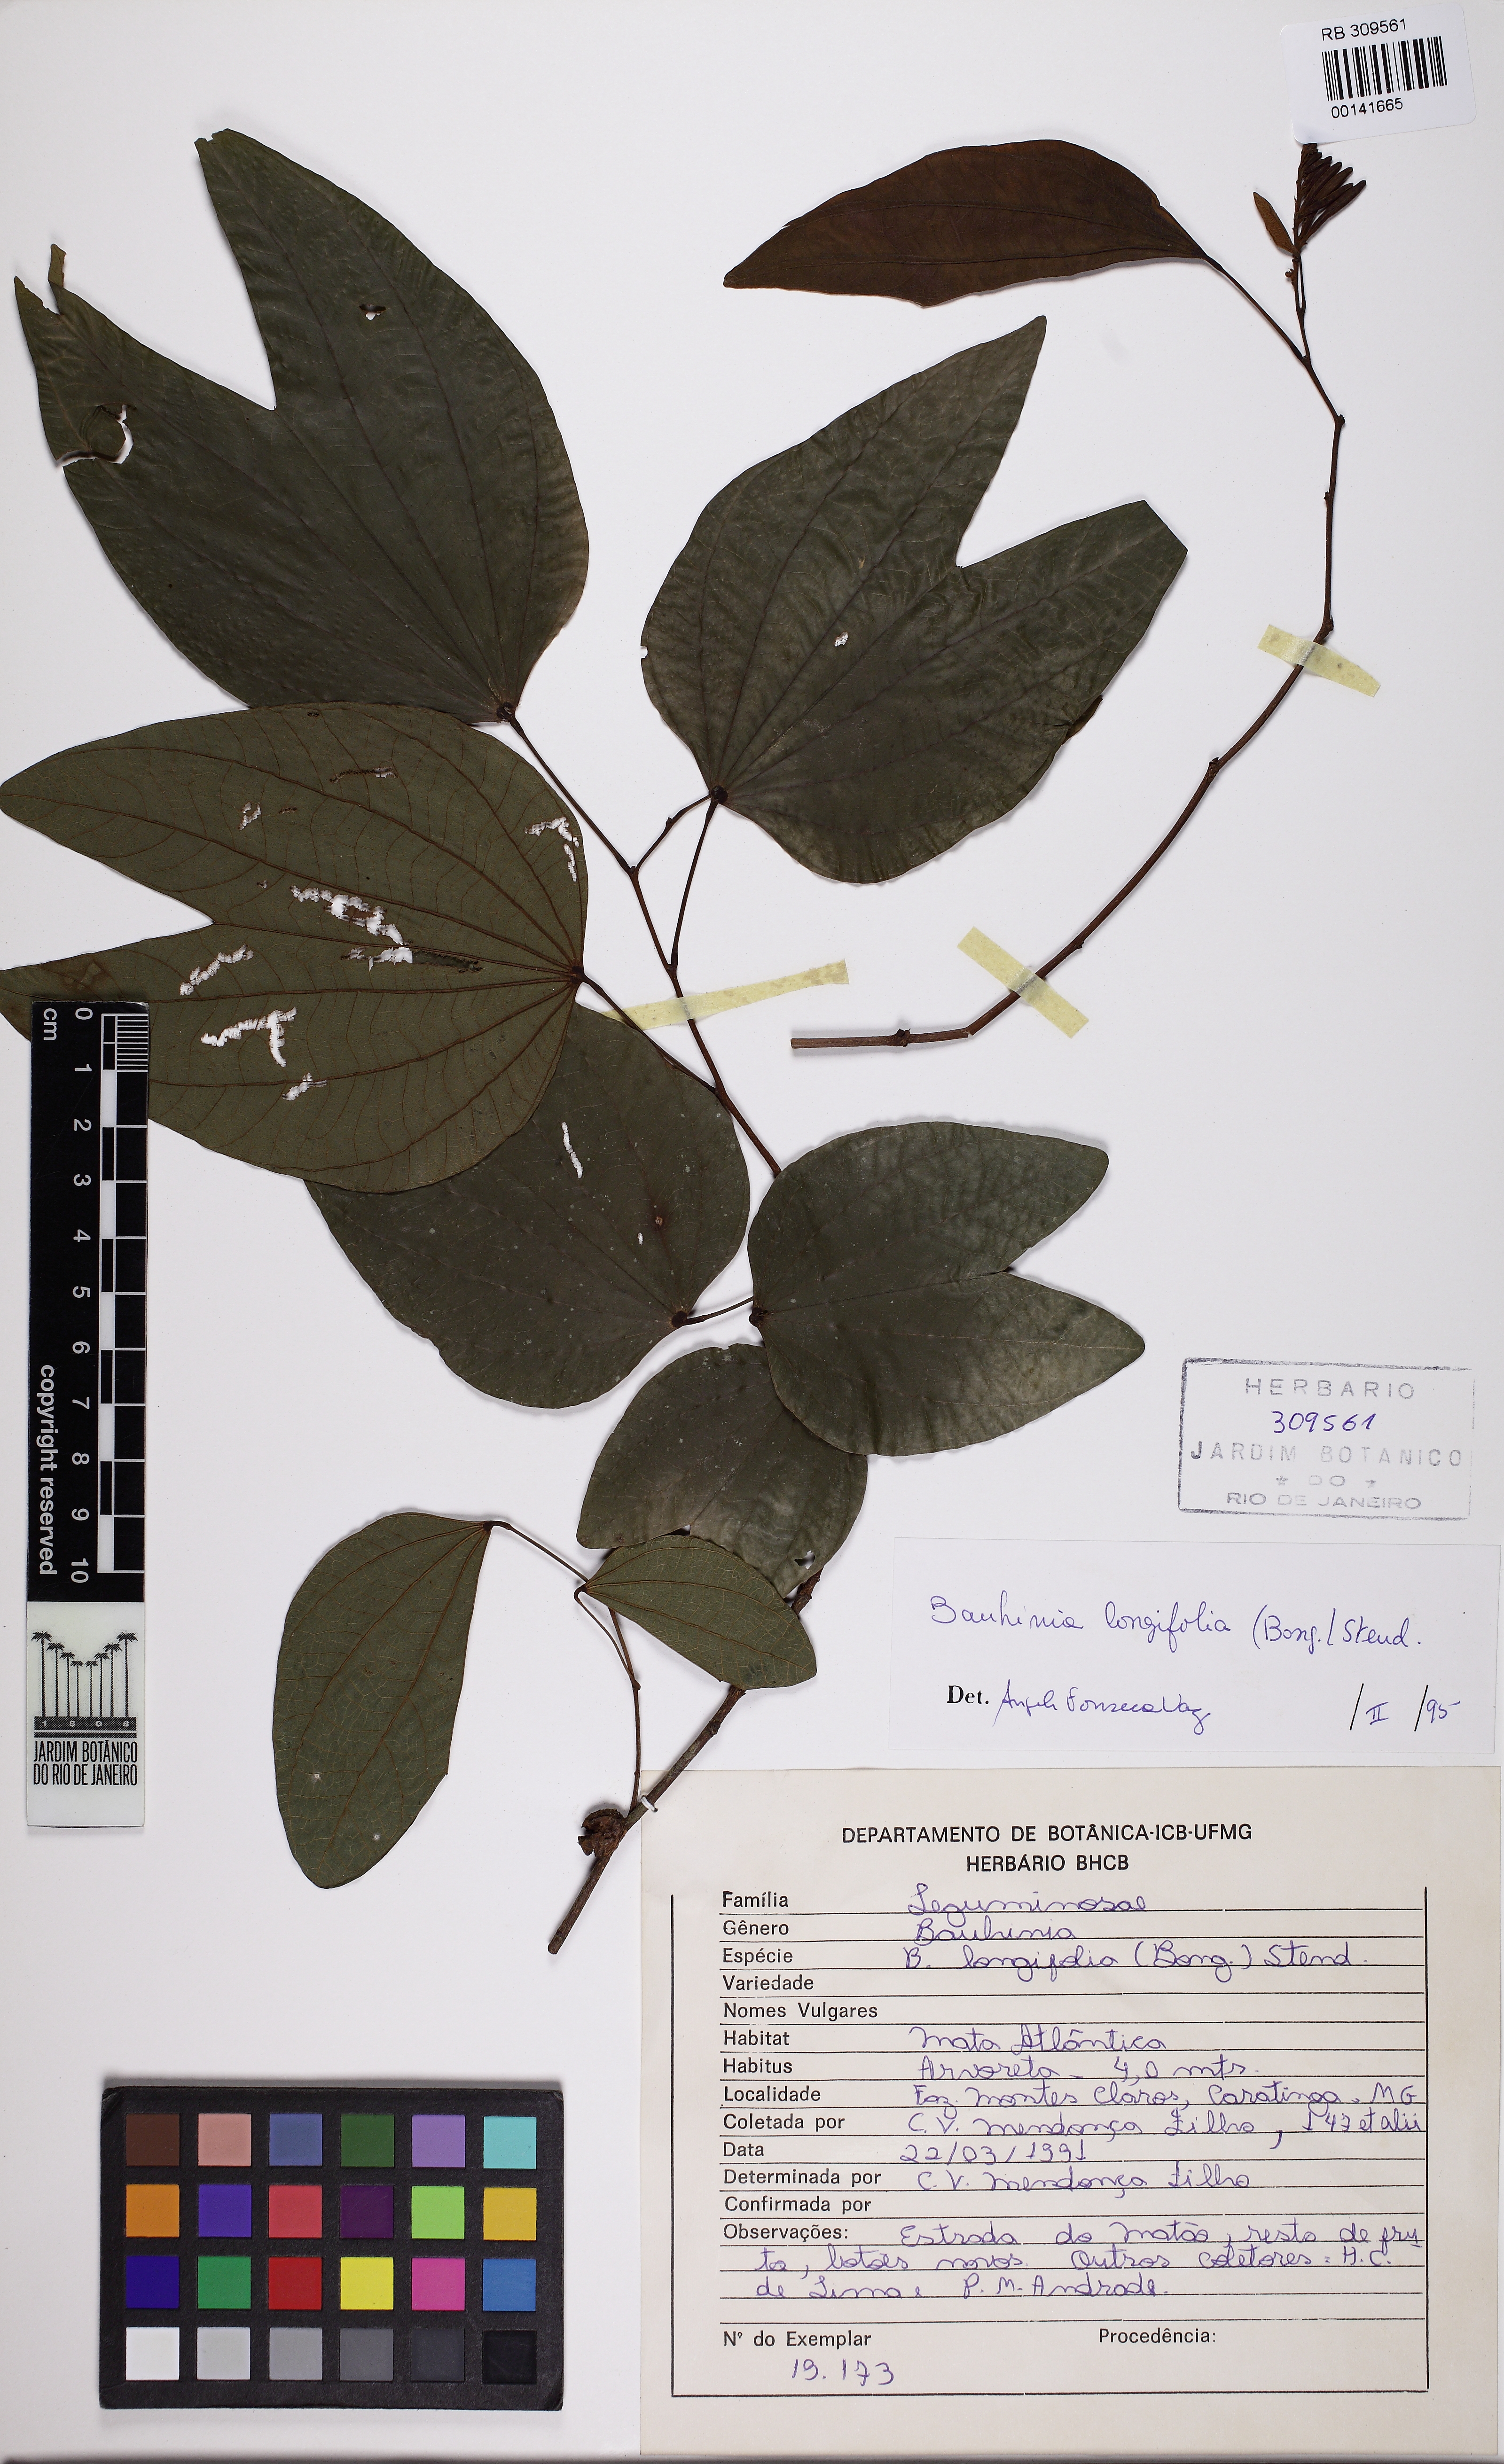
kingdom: Plantae
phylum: Tracheophyta
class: Magnoliopsida
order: Fabales
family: Fabaceae
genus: Bauhinia
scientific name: Bauhinia longifolia
